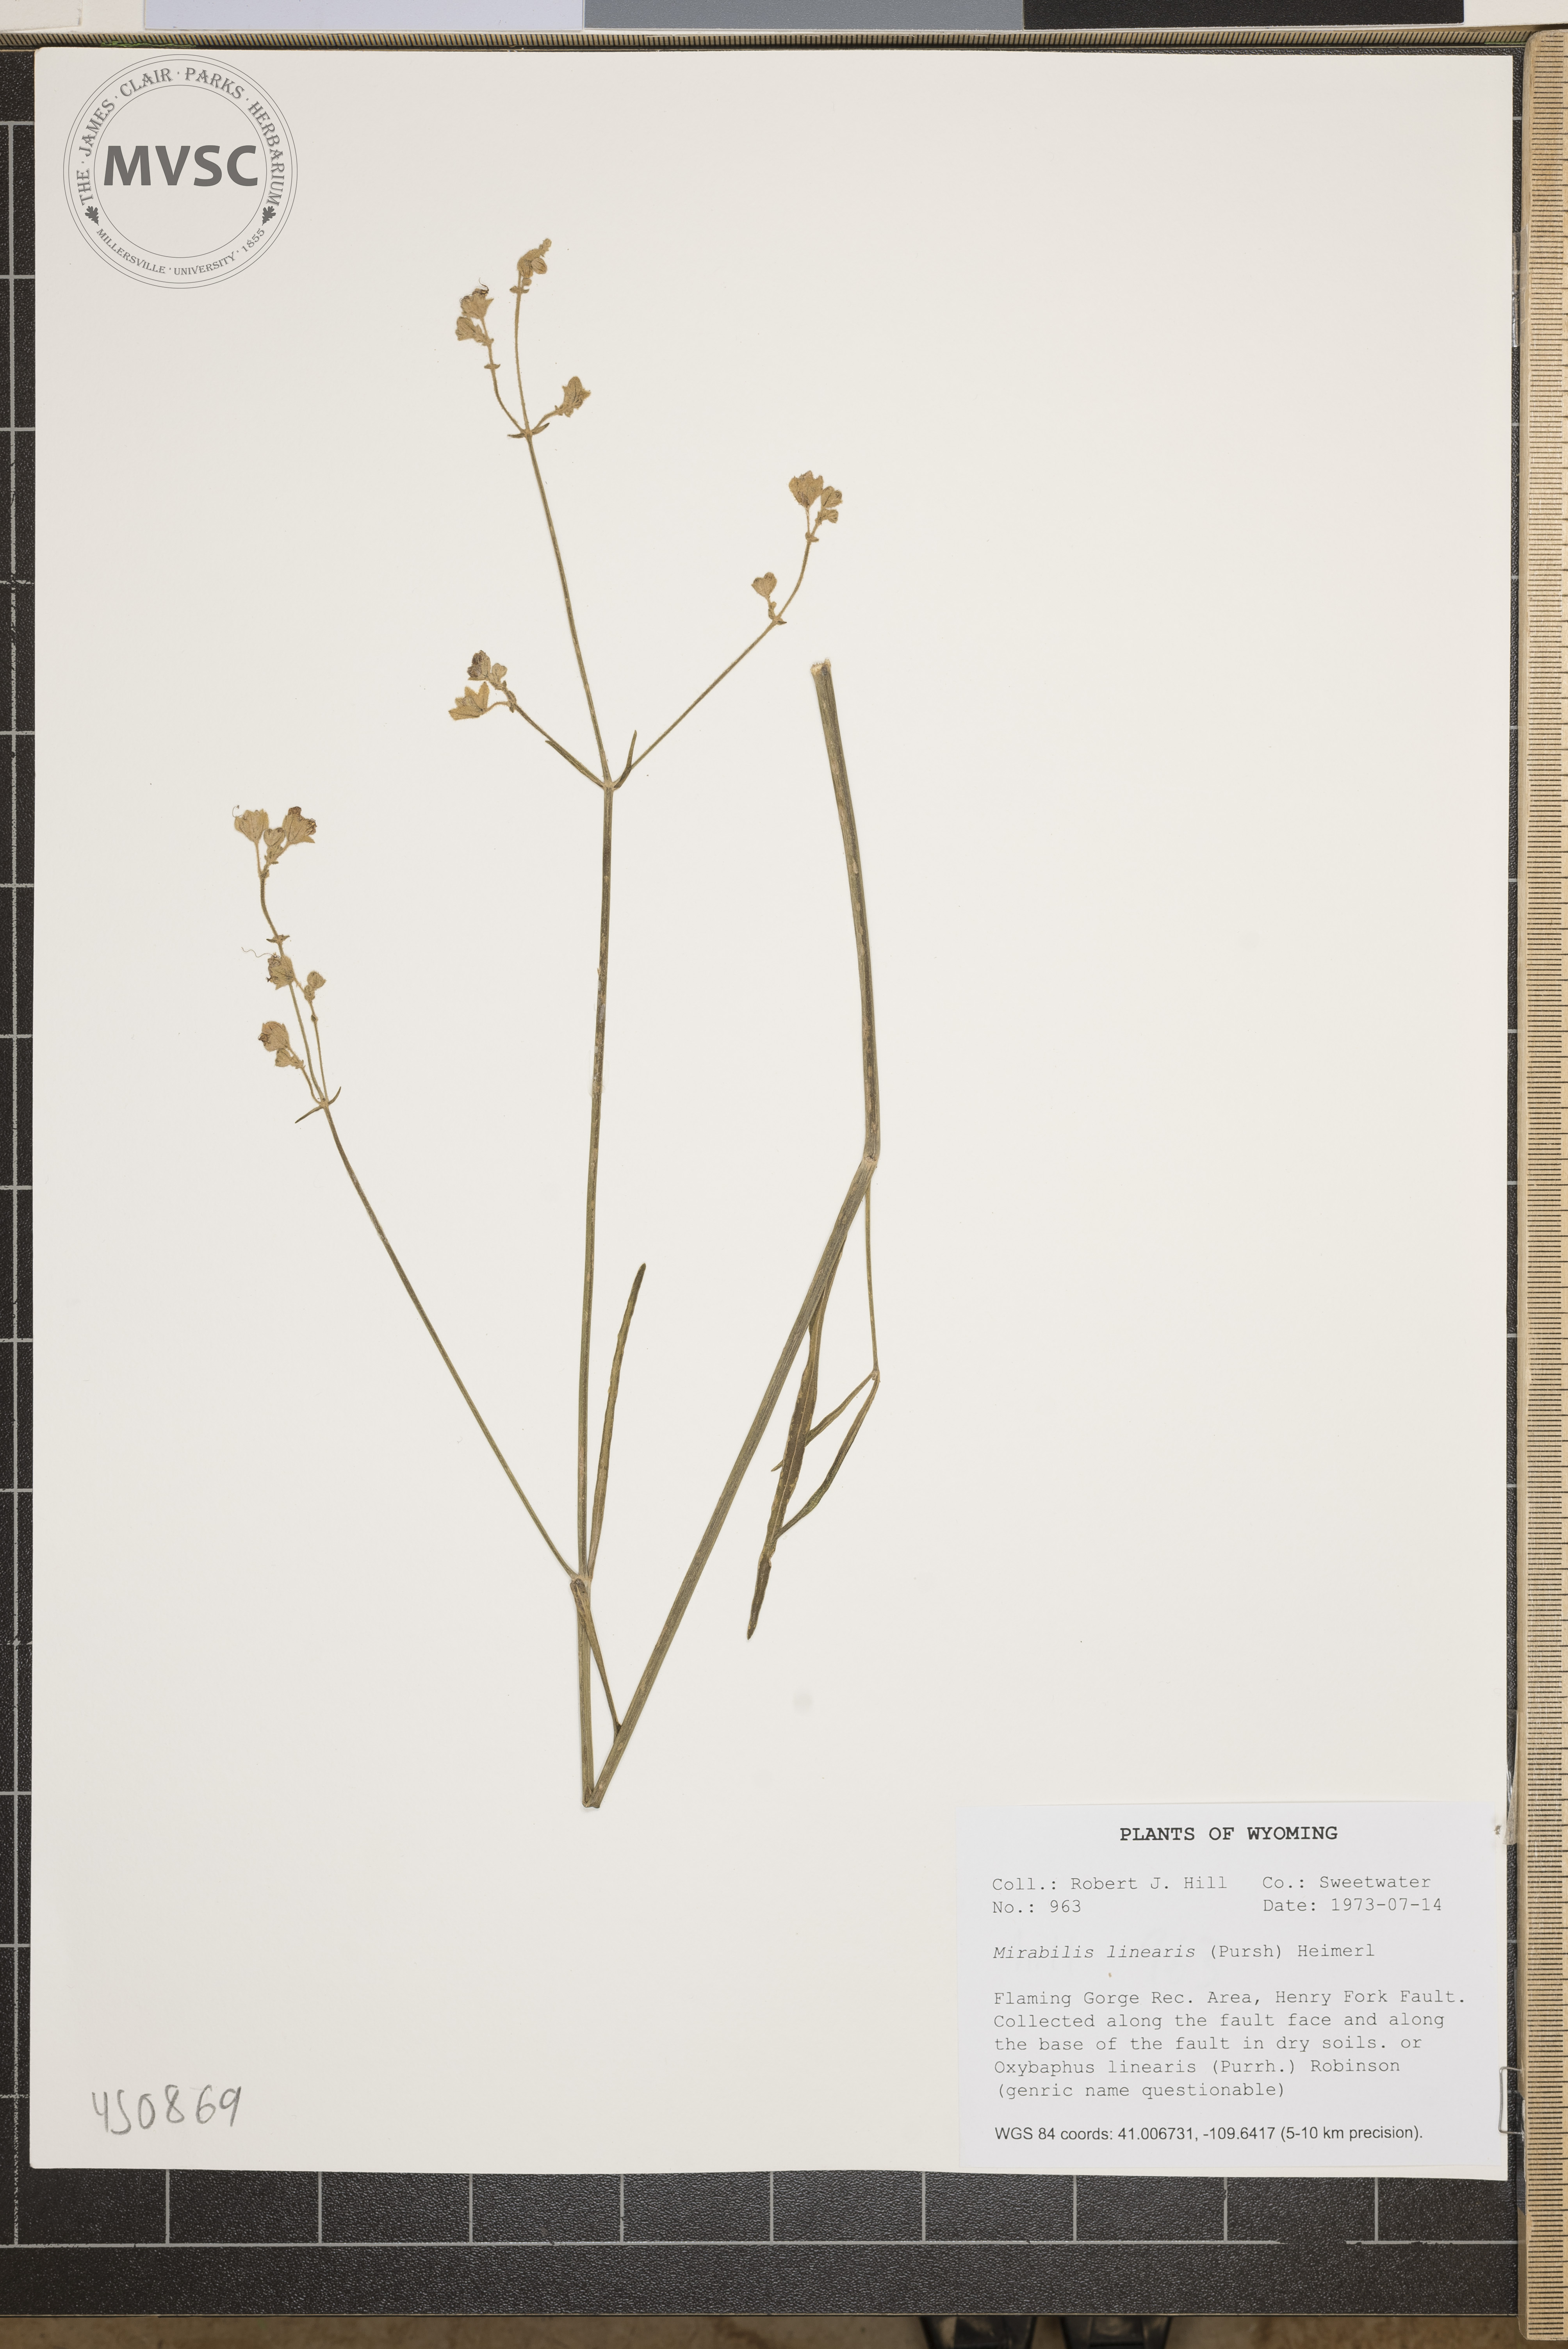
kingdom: Plantae
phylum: Tracheophyta
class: Magnoliopsida
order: Caryophyllales
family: Nyctaginaceae
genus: Mirabilis
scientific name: Mirabilis linearis
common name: Linear-leaved four-o'clock
